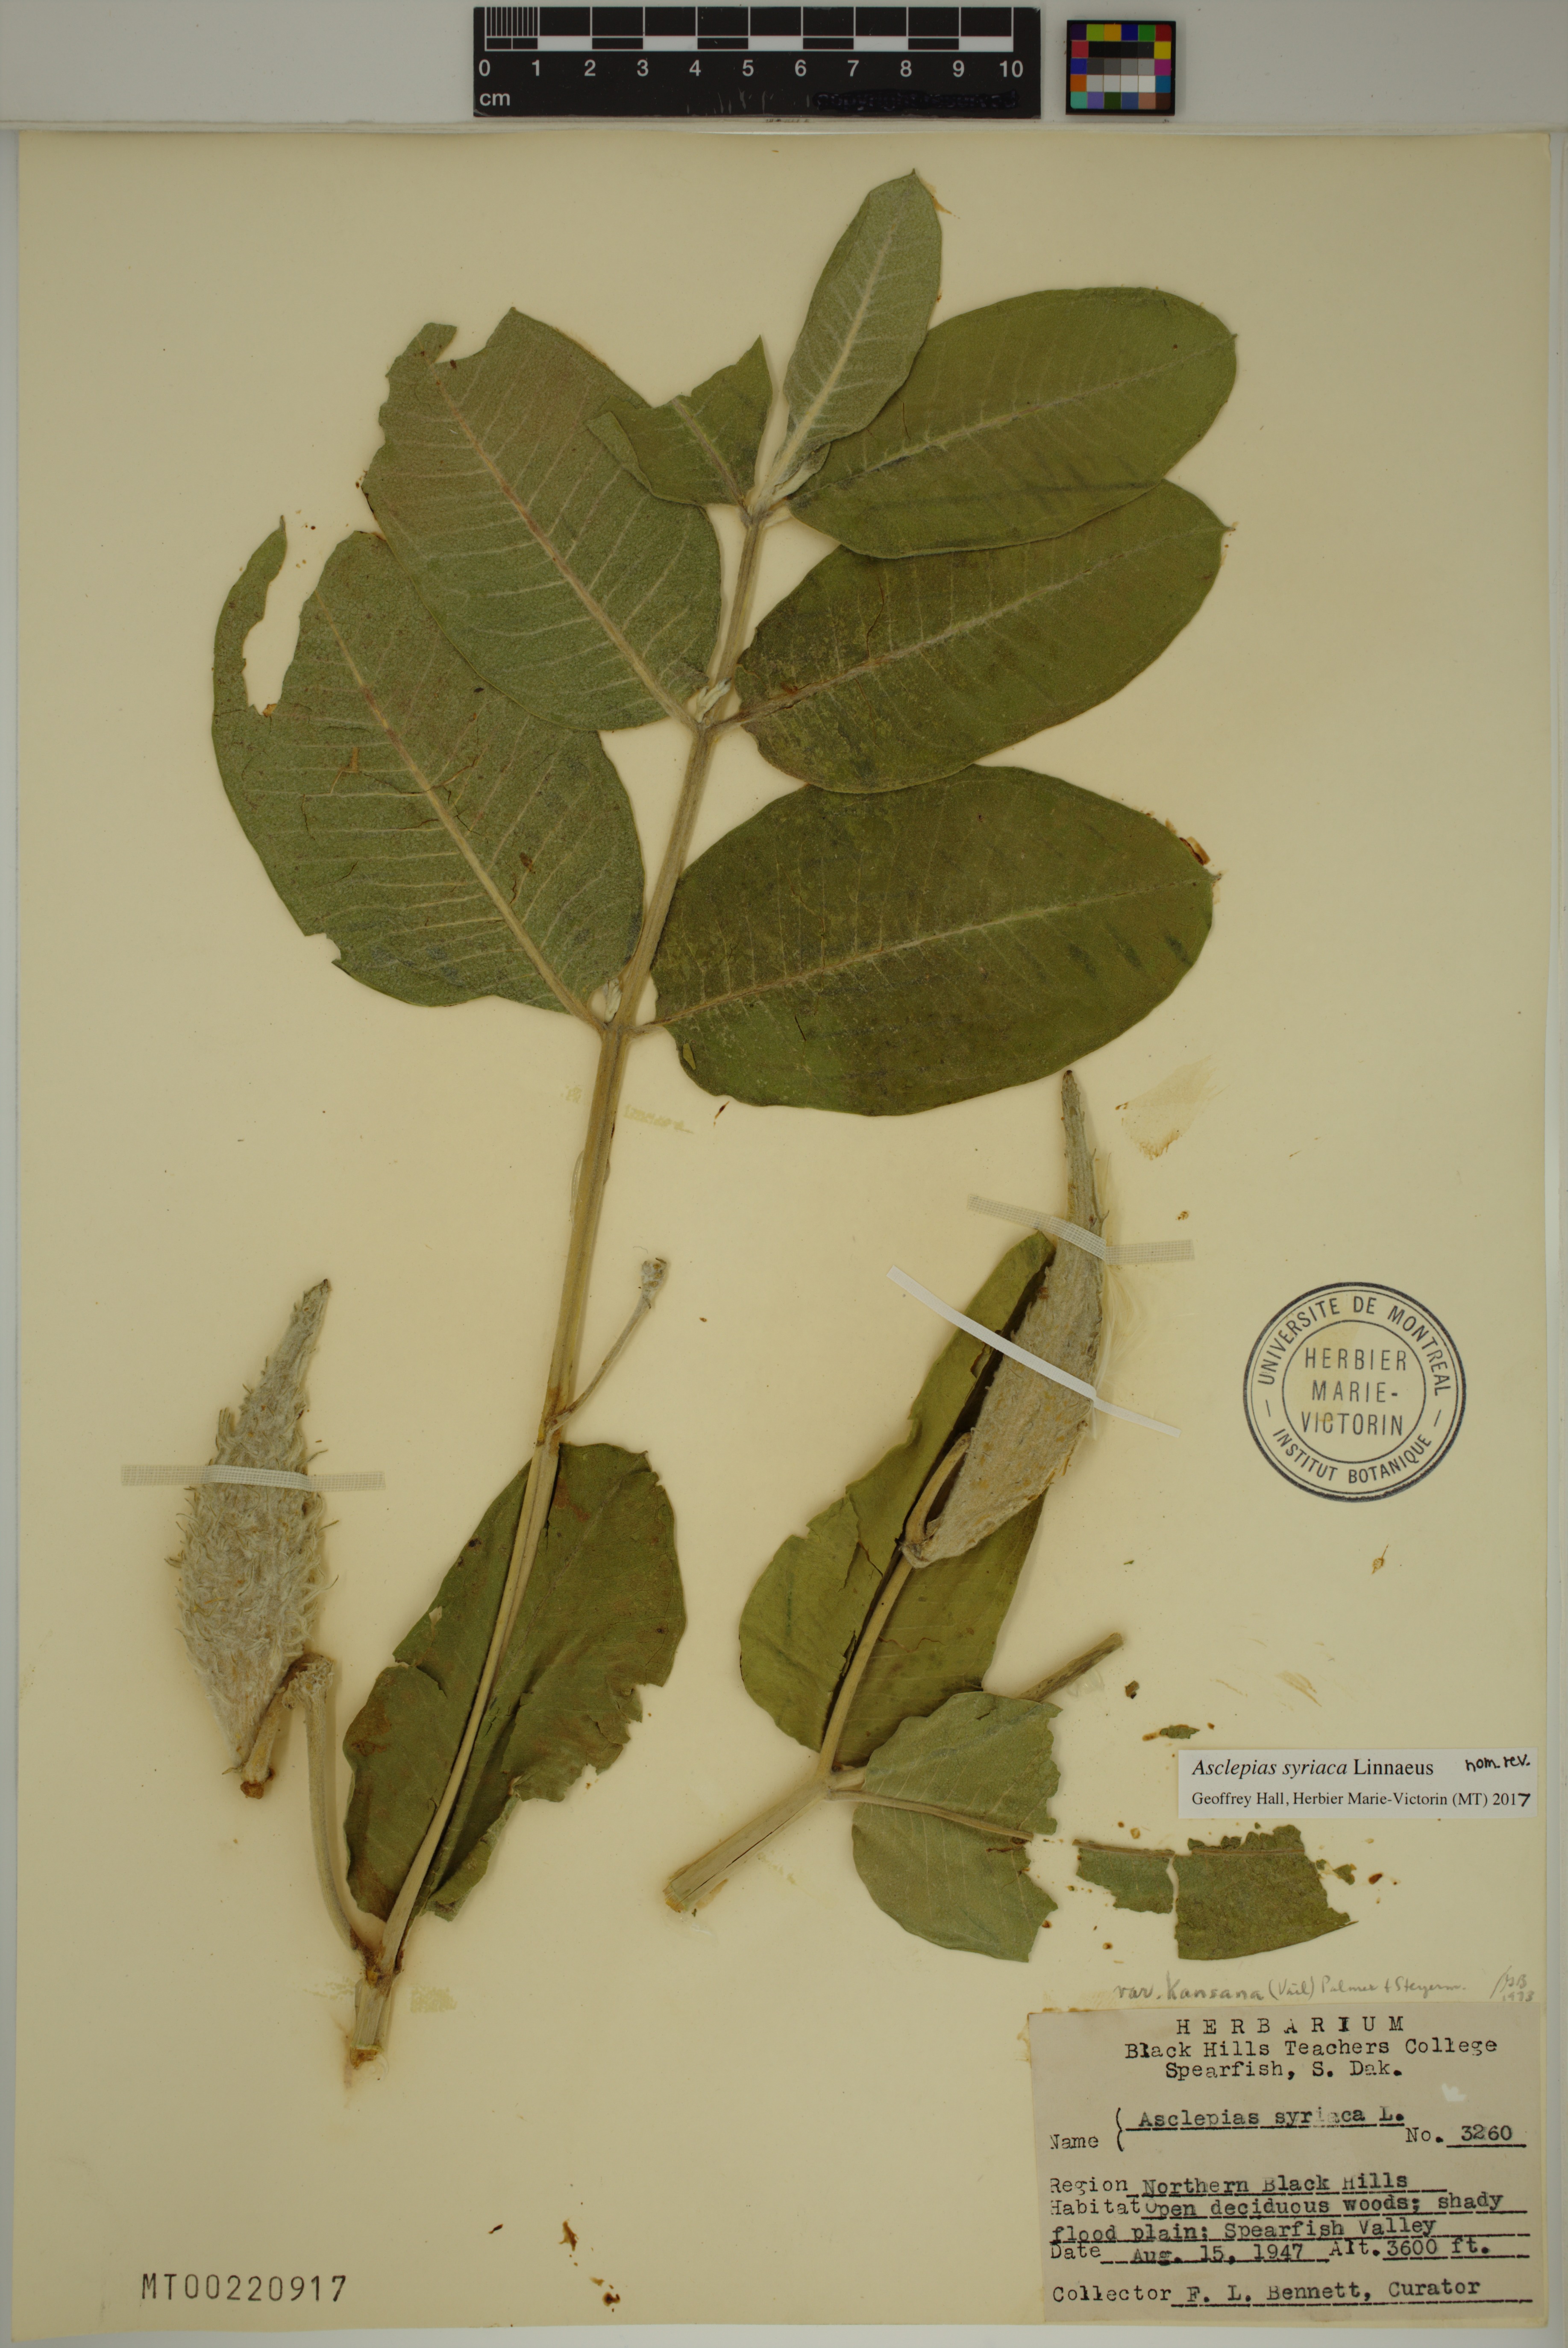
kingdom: Plantae
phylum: Tracheophyta
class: Magnoliopsida
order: Gentianales
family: Apocynaceae
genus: Asclepias
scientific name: Asclepias syriaca
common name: Common milkweed
